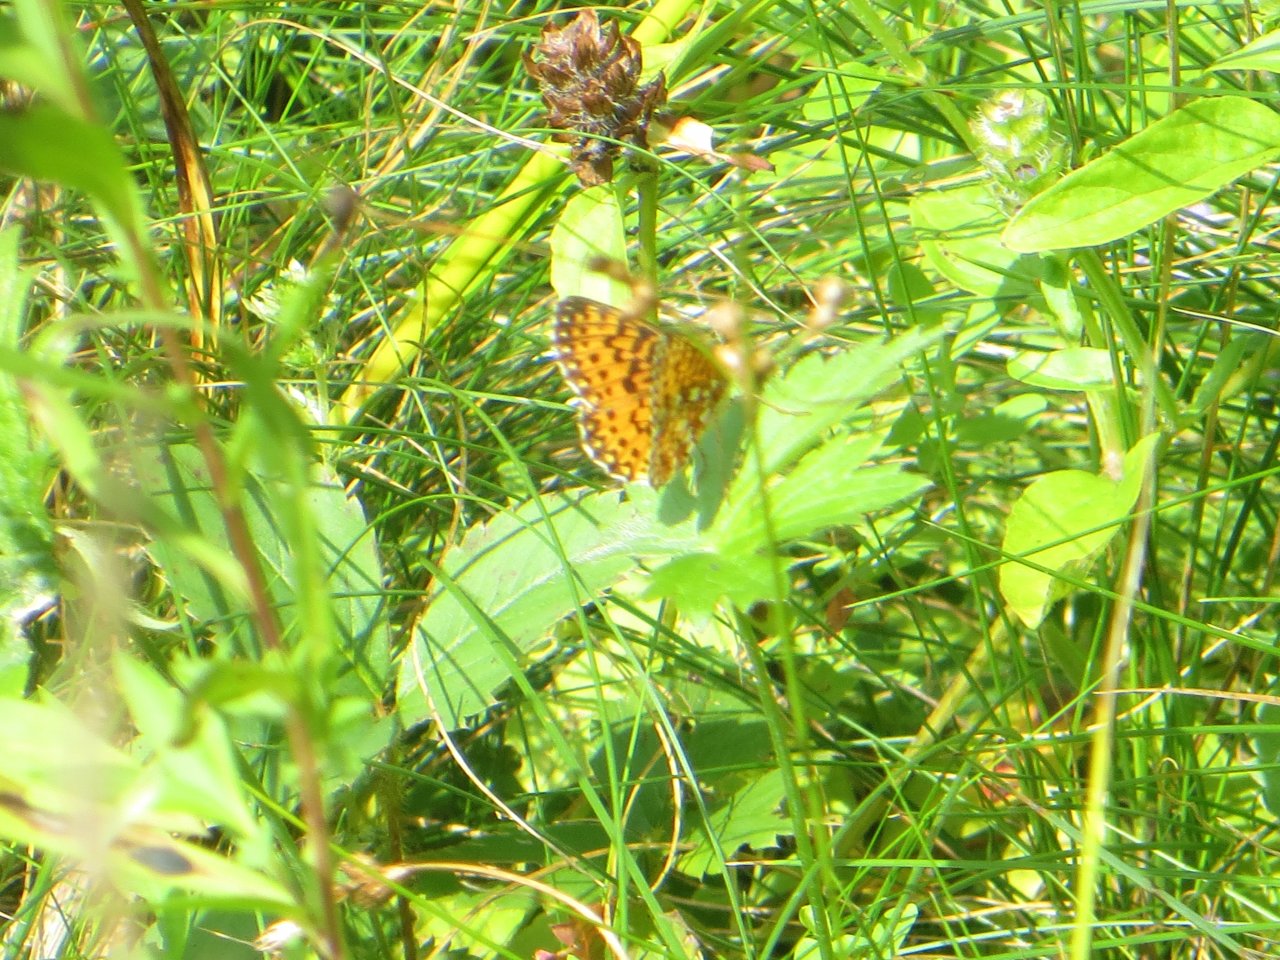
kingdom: Animalia
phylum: Arthropoda
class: Insecta
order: Lepidoptera
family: Nymphalidae
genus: Boloria
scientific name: Boloria selene
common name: Silver-bordered Fritillary
